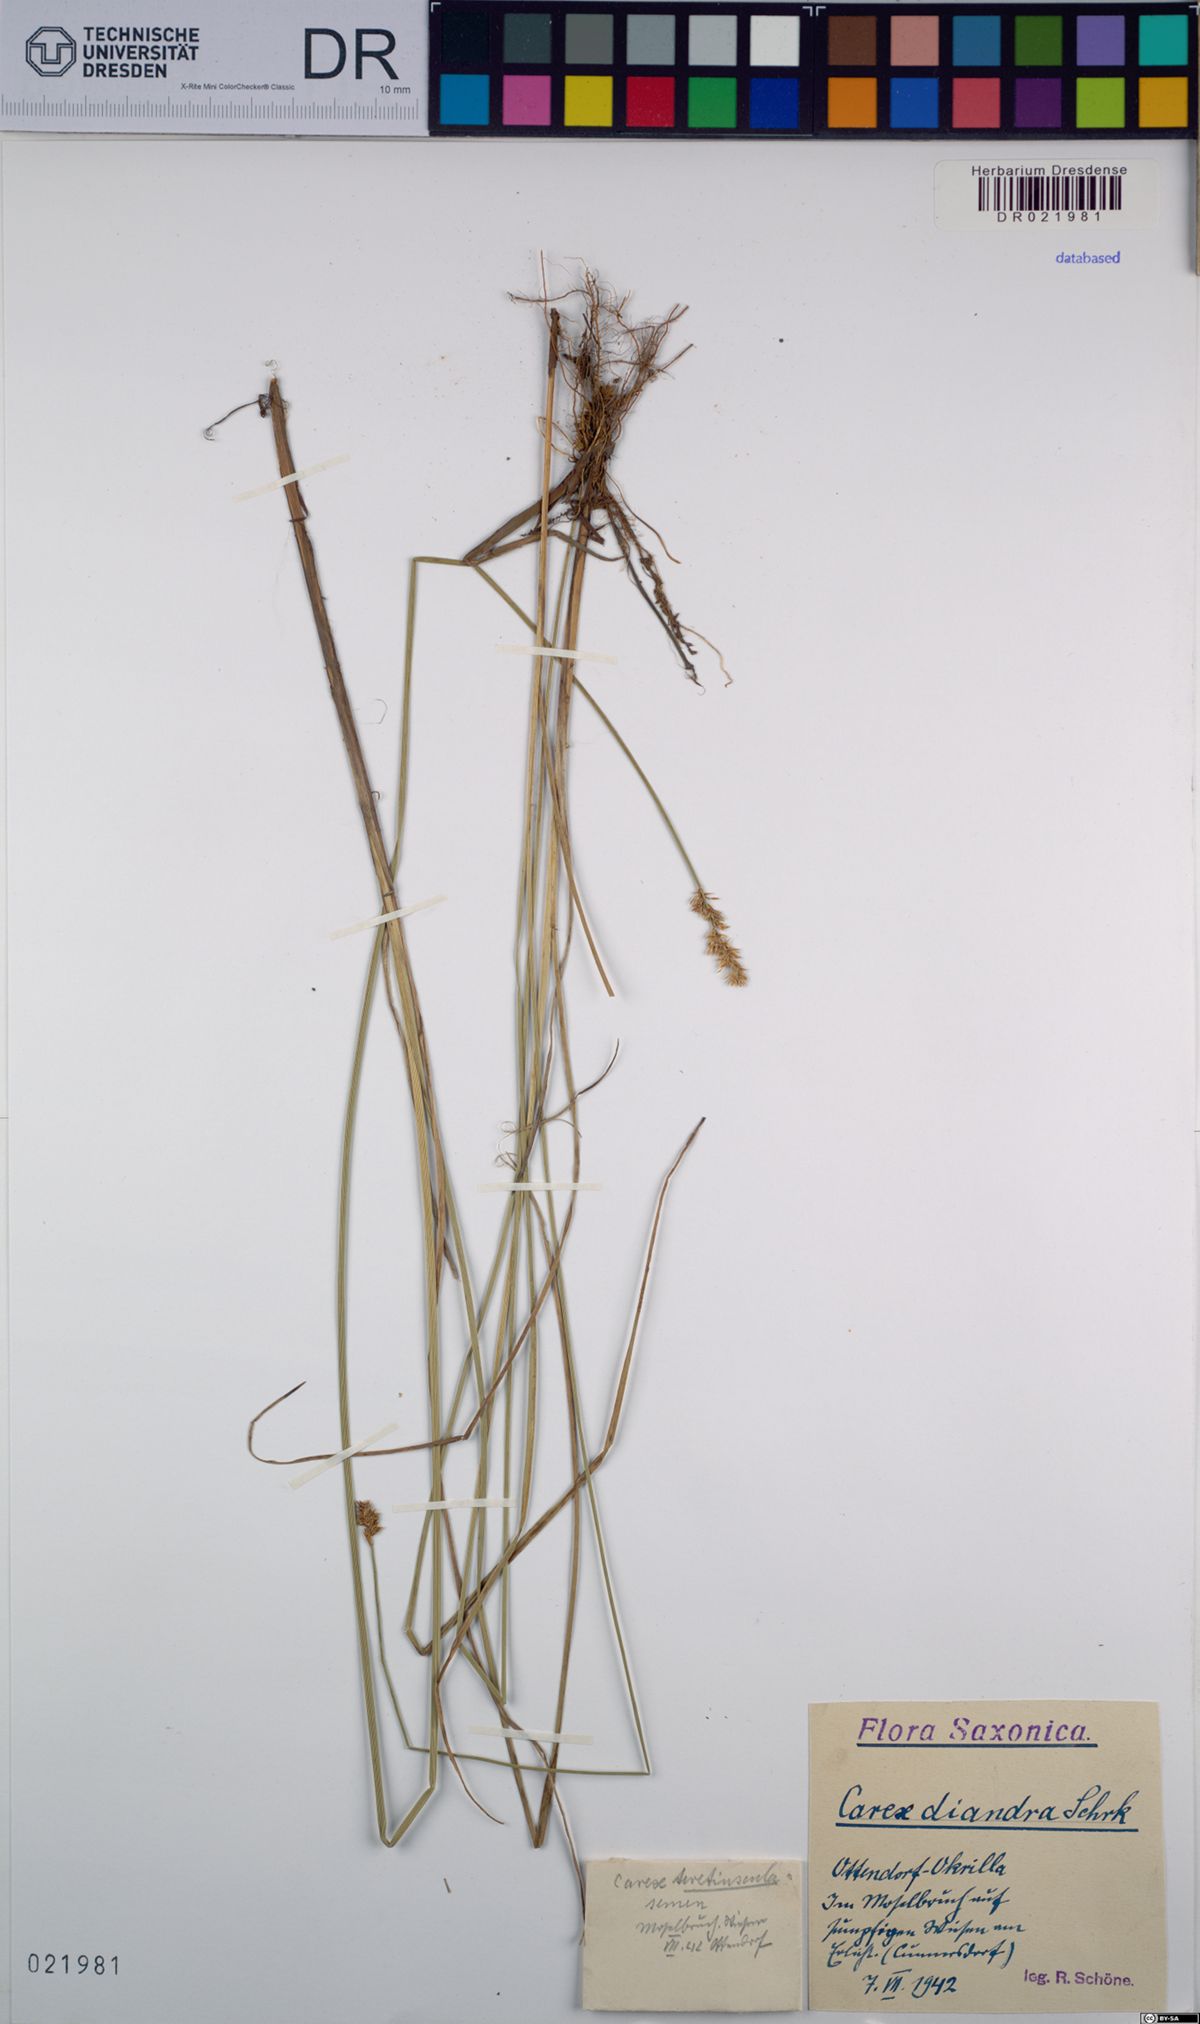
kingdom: Plantae
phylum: Tracheophyta
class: Liliopsida
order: Poales
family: Cyperaceae
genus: Carex
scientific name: Carex diandra
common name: Lesser tussock-sedge
